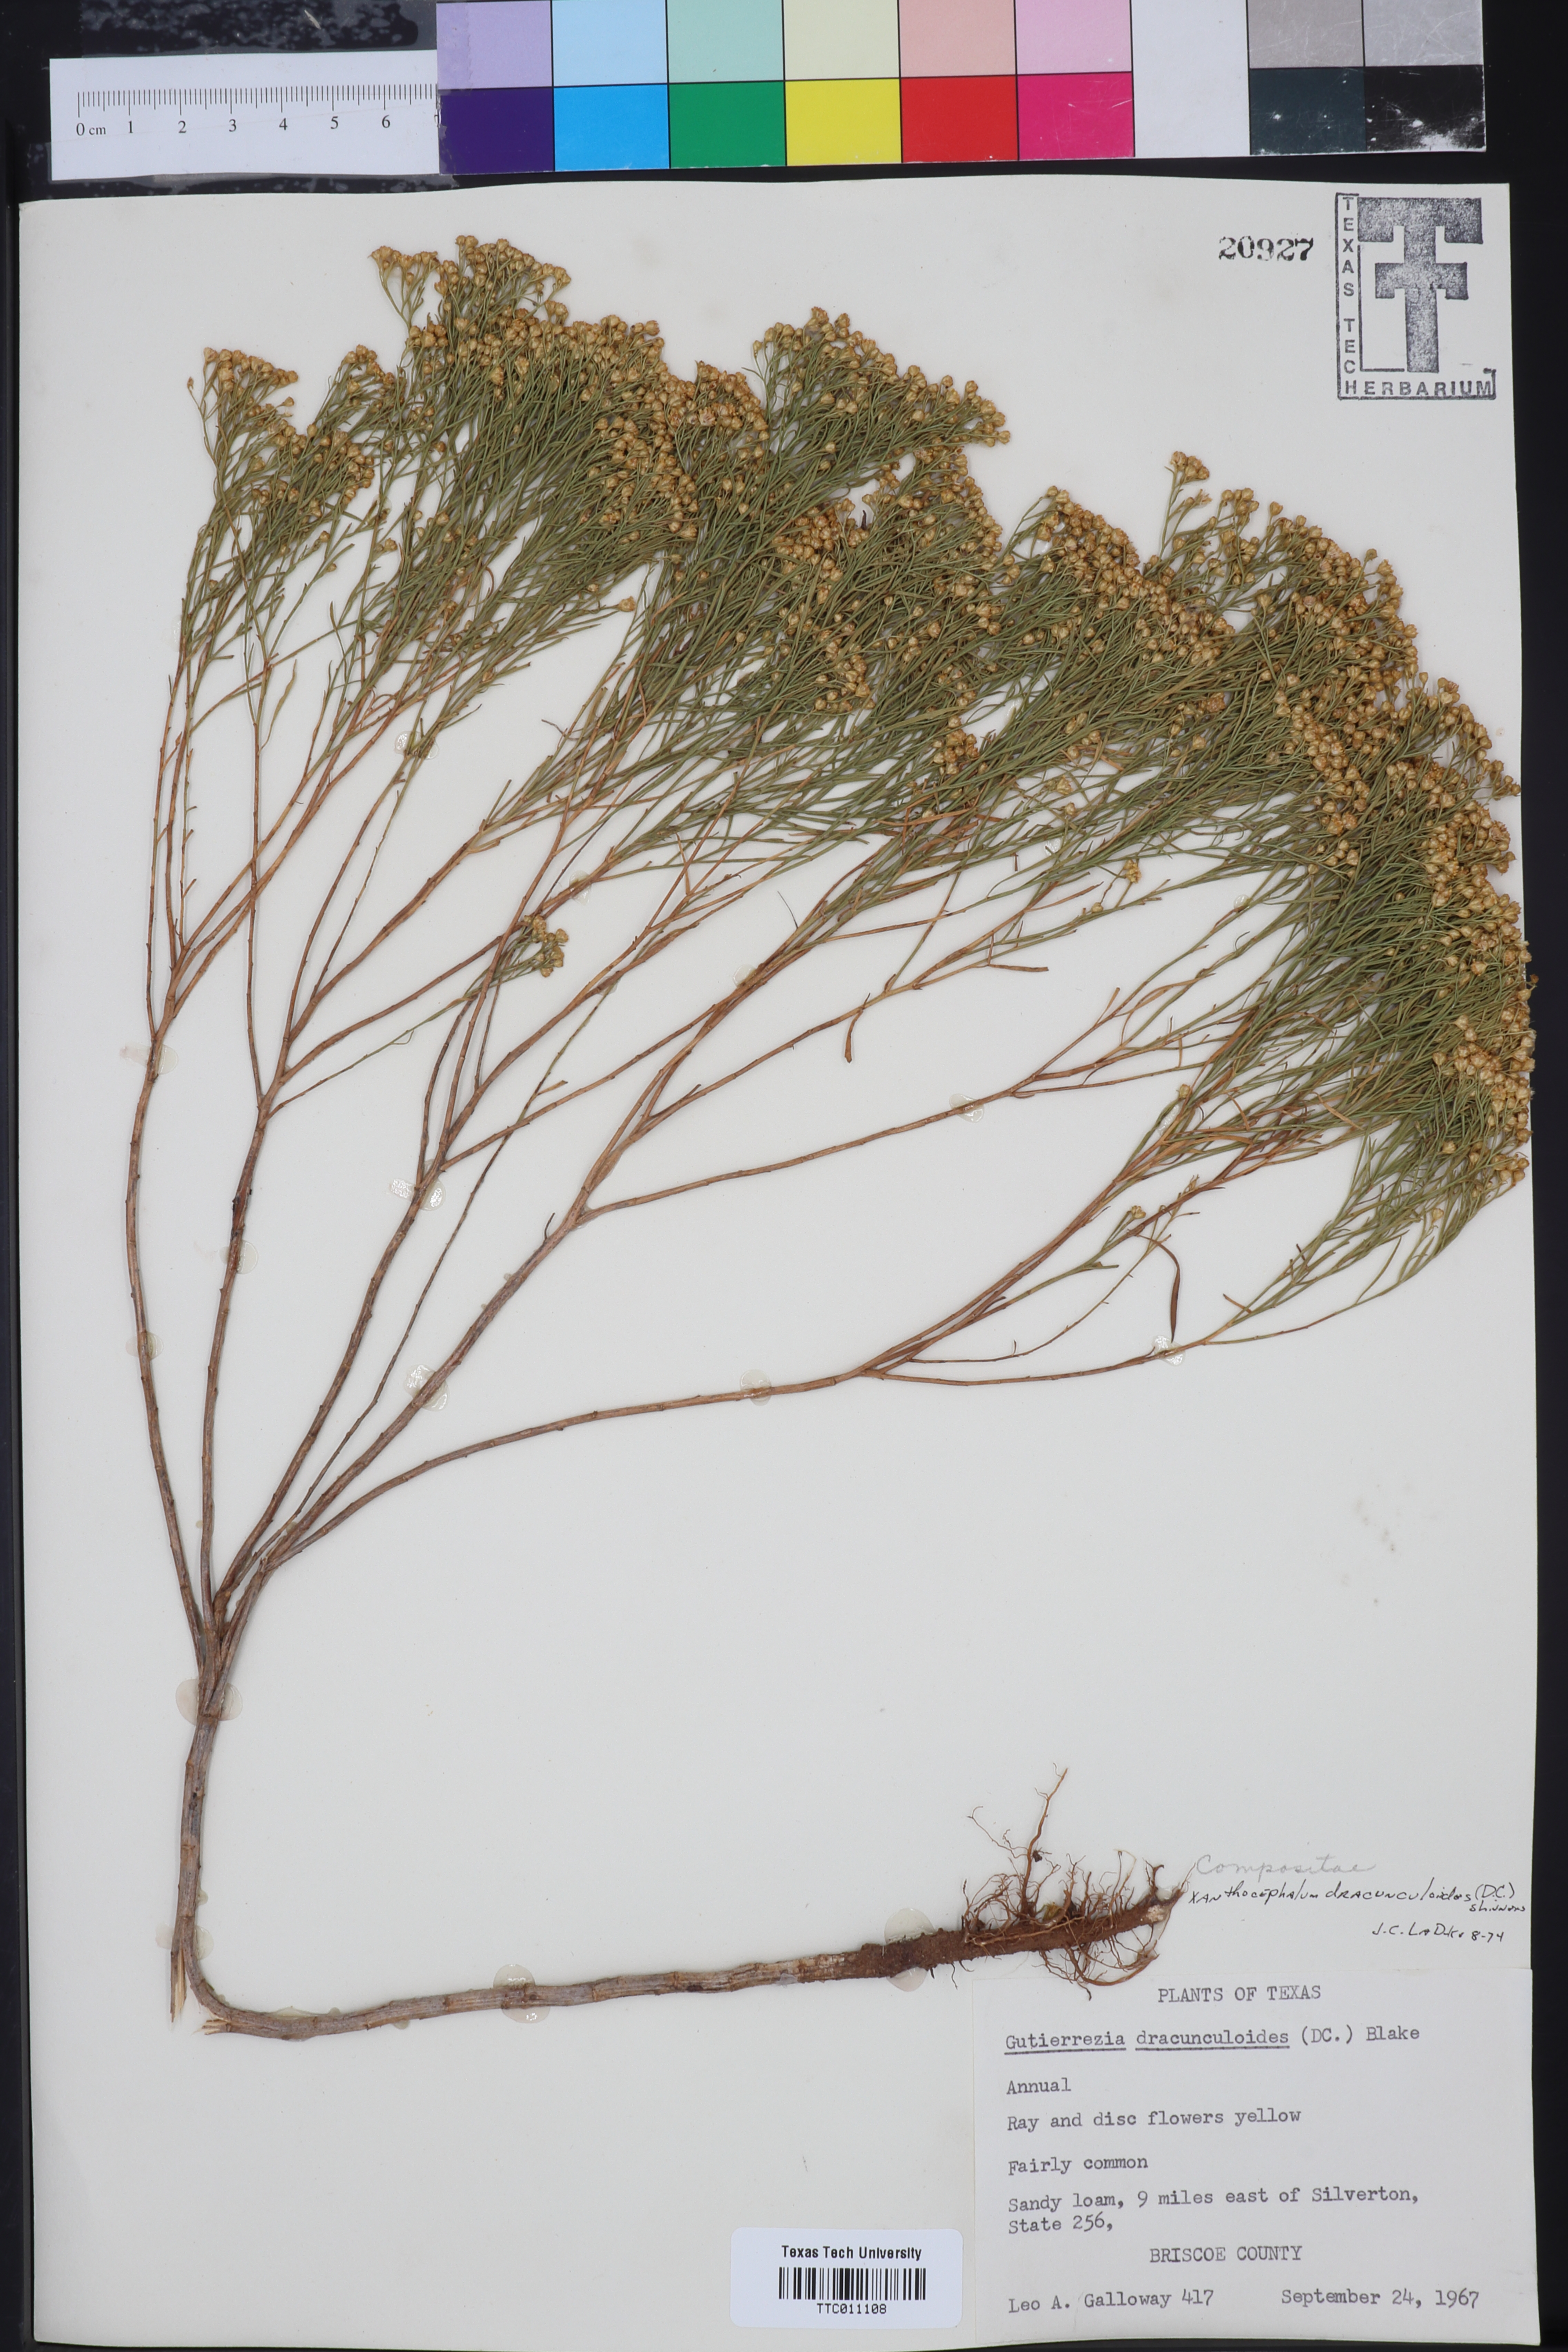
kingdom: Plantae
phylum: Tracheophyta
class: Magnoliopsida
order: Asterales
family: Asteraceae
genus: Amphiachyris
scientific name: Amphiachyris dracunculoides
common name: Broomweed
